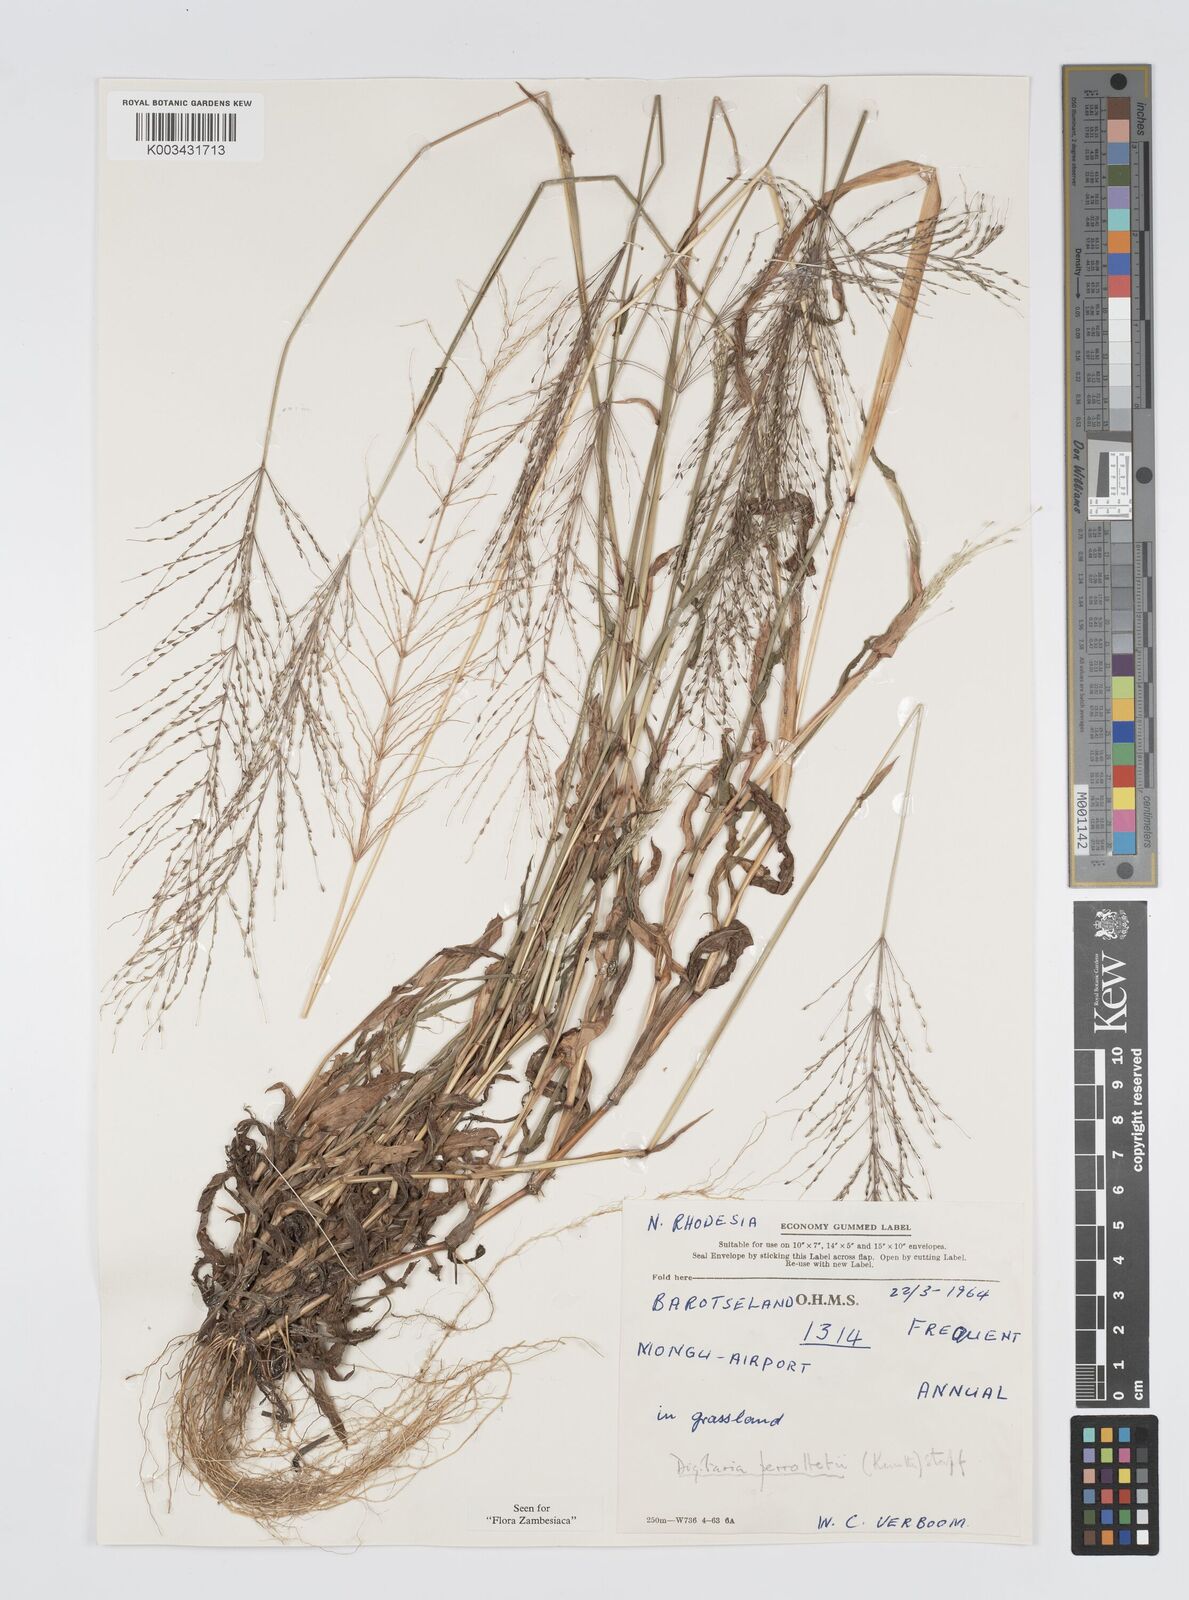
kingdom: Plantae
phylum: Tracheophyta
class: Liliopsida
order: Poales
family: Poaceae
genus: Digitaria
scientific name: Digitaria perrottetii
